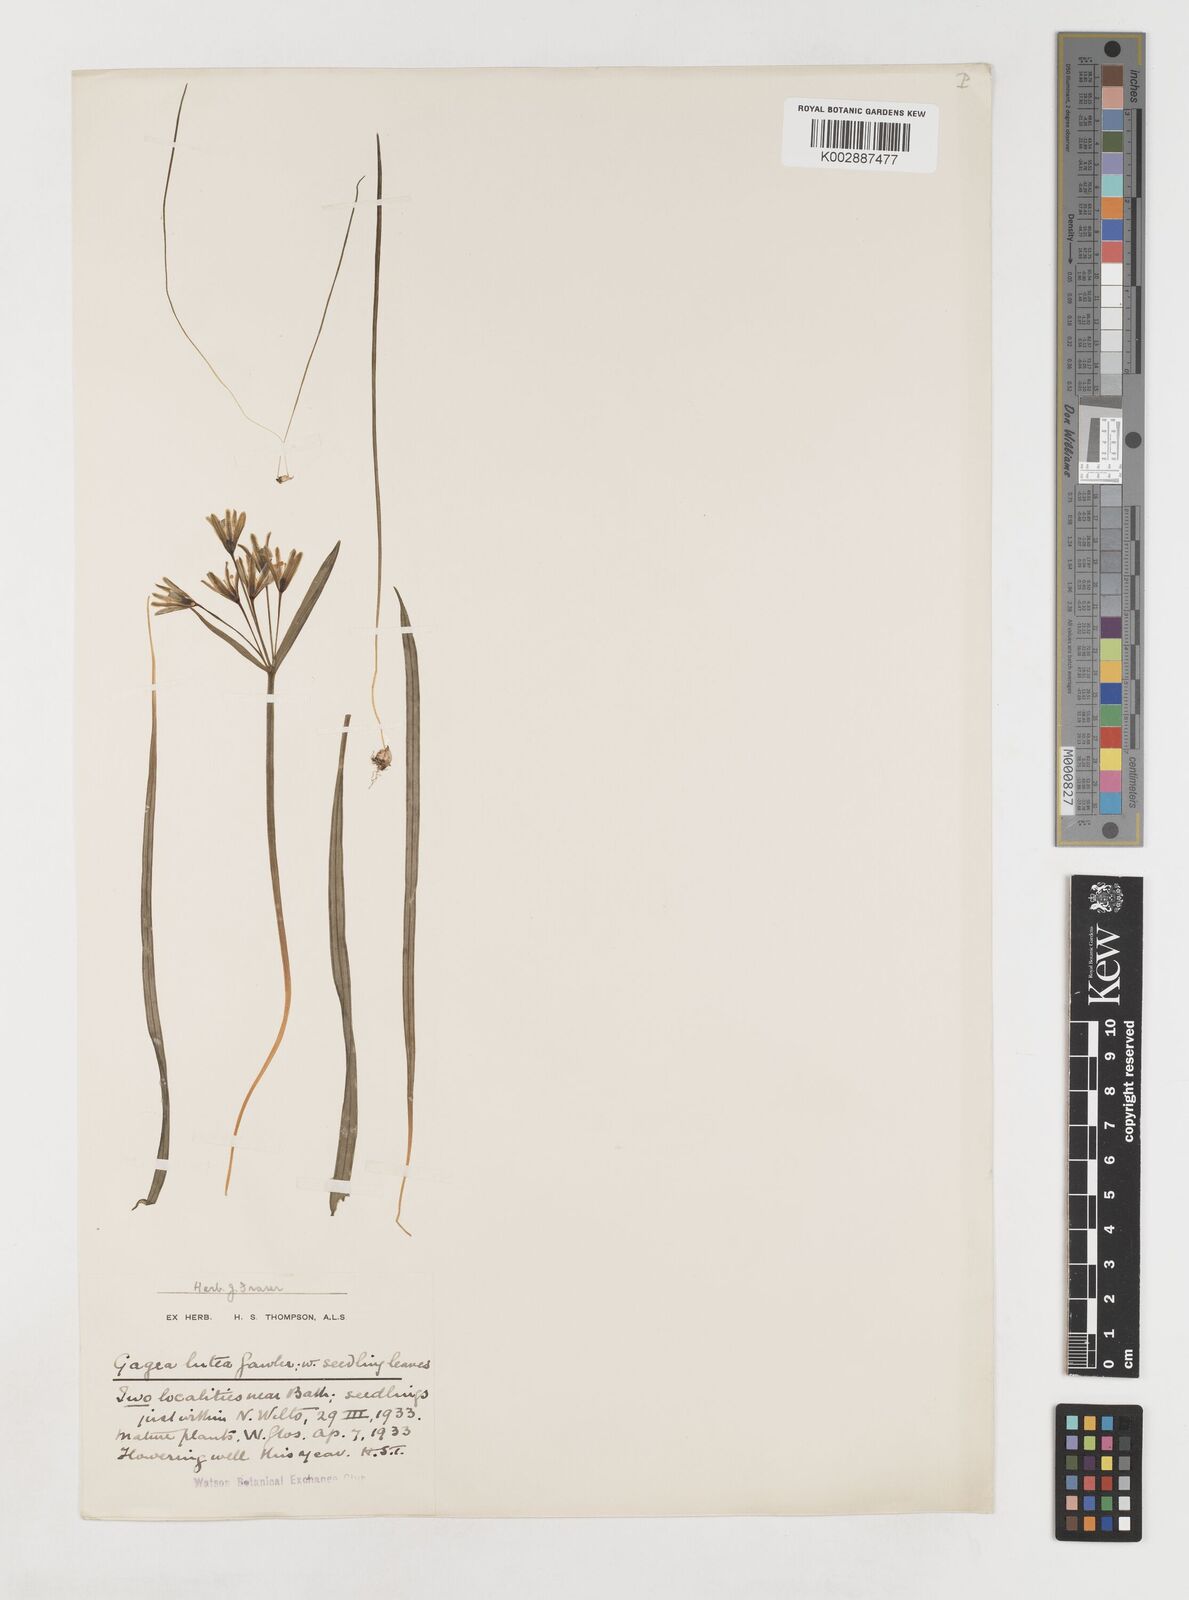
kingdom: Plantae
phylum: Tracheophyta
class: Liliopsida
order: Liliales
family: Liliaceae
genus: Gagea
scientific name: Gagea lutea
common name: Yellow star-of-bethlehem
